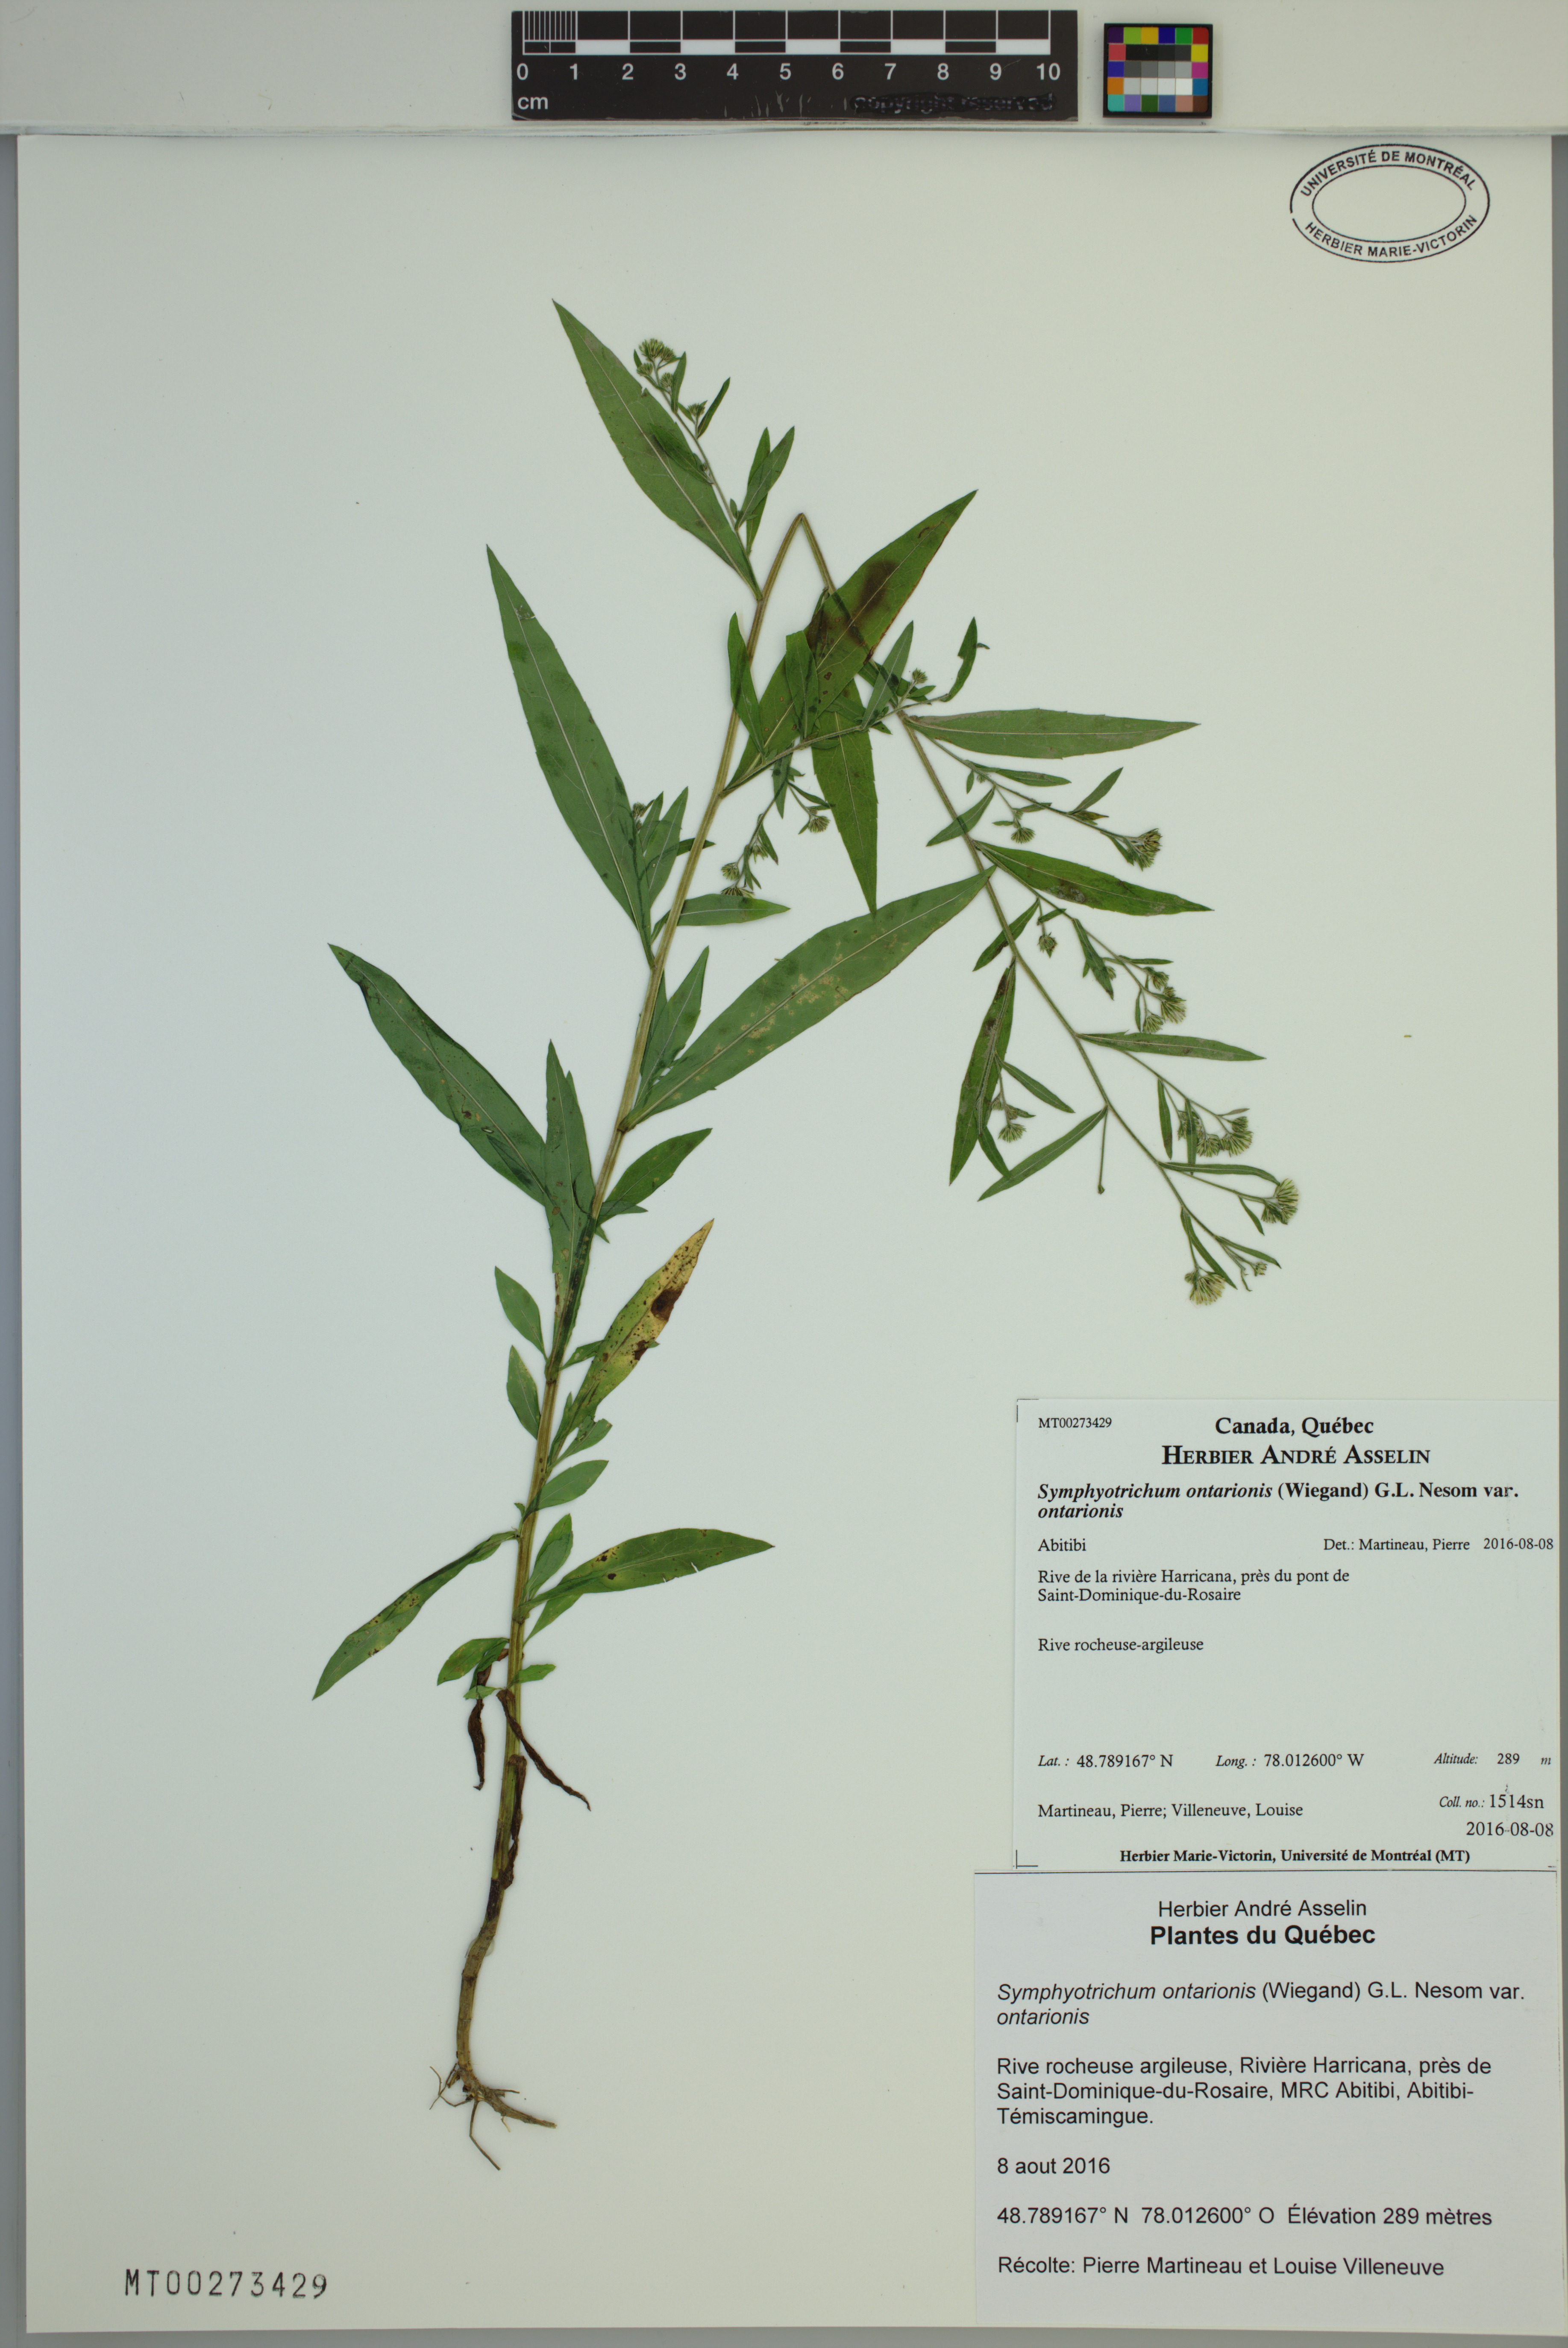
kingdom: Plantae
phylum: Tracheophyta
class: Magnoliopsida
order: Asterales
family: Asteraceae
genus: Symphyotrichum
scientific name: Symphyotrichum ontarionis
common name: Bottomland aster
